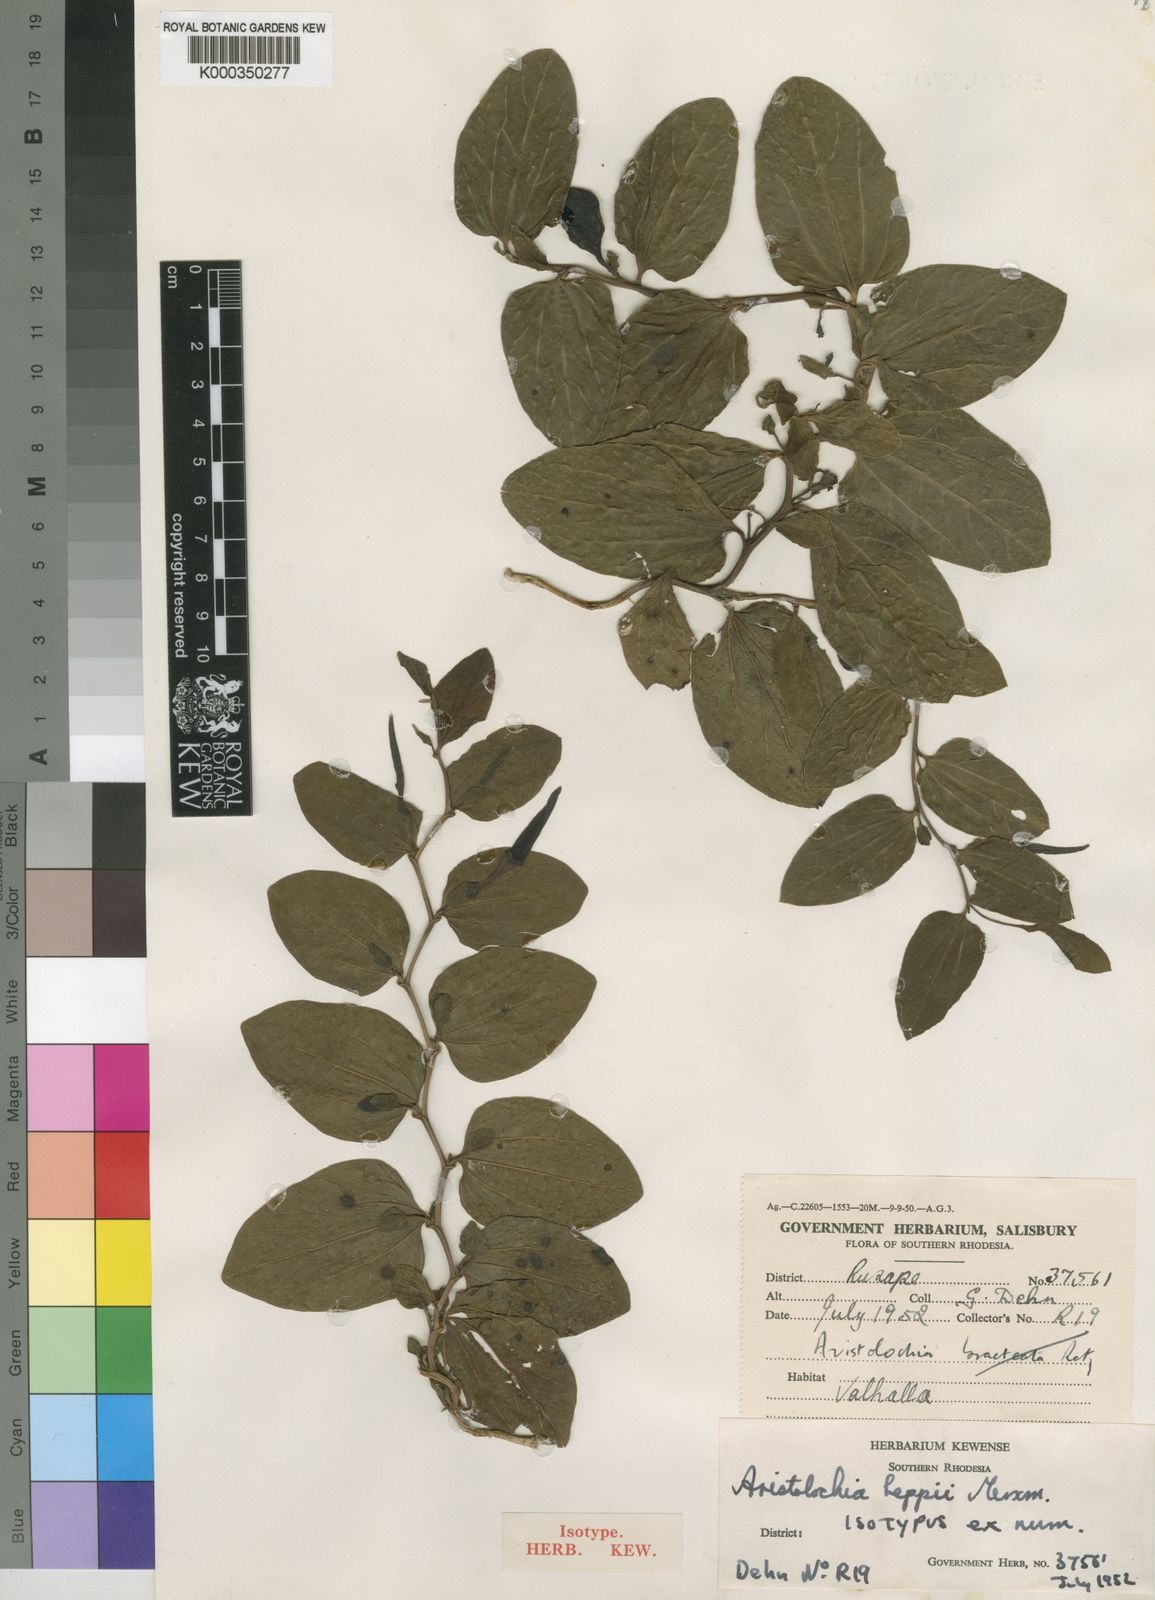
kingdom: Plantae
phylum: Tracheophyta
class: Magnoliopsida
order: Piperales
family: Aristolochiaceae
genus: Aristolochia
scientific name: Aristolochia heppii
